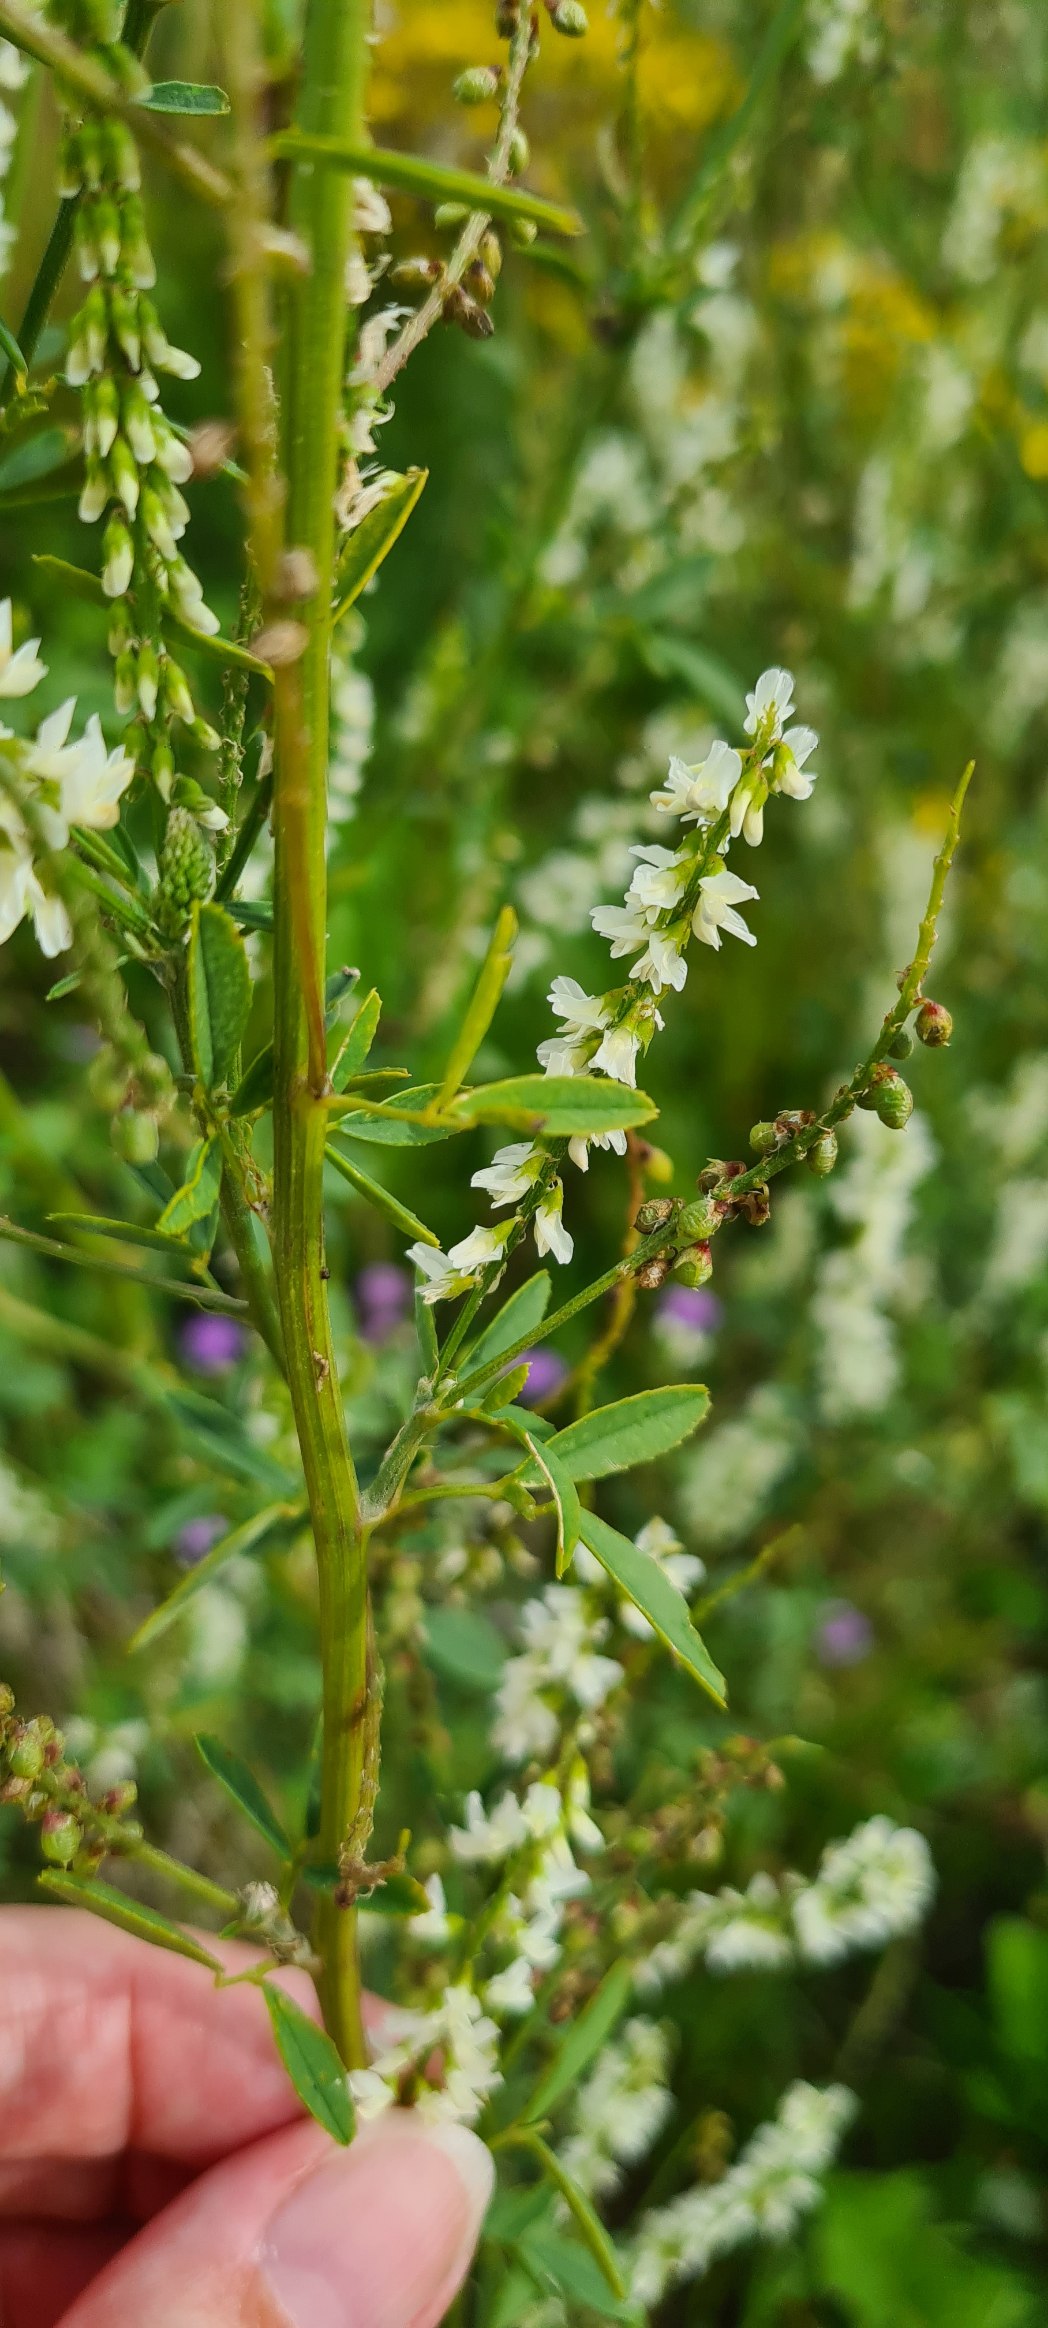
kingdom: Plantae
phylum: Tracheophyta
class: Magnoliopsida
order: Fabales
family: Fabaceae
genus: Melilotus
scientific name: Melilotus albus
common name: Hvid stenkløver
